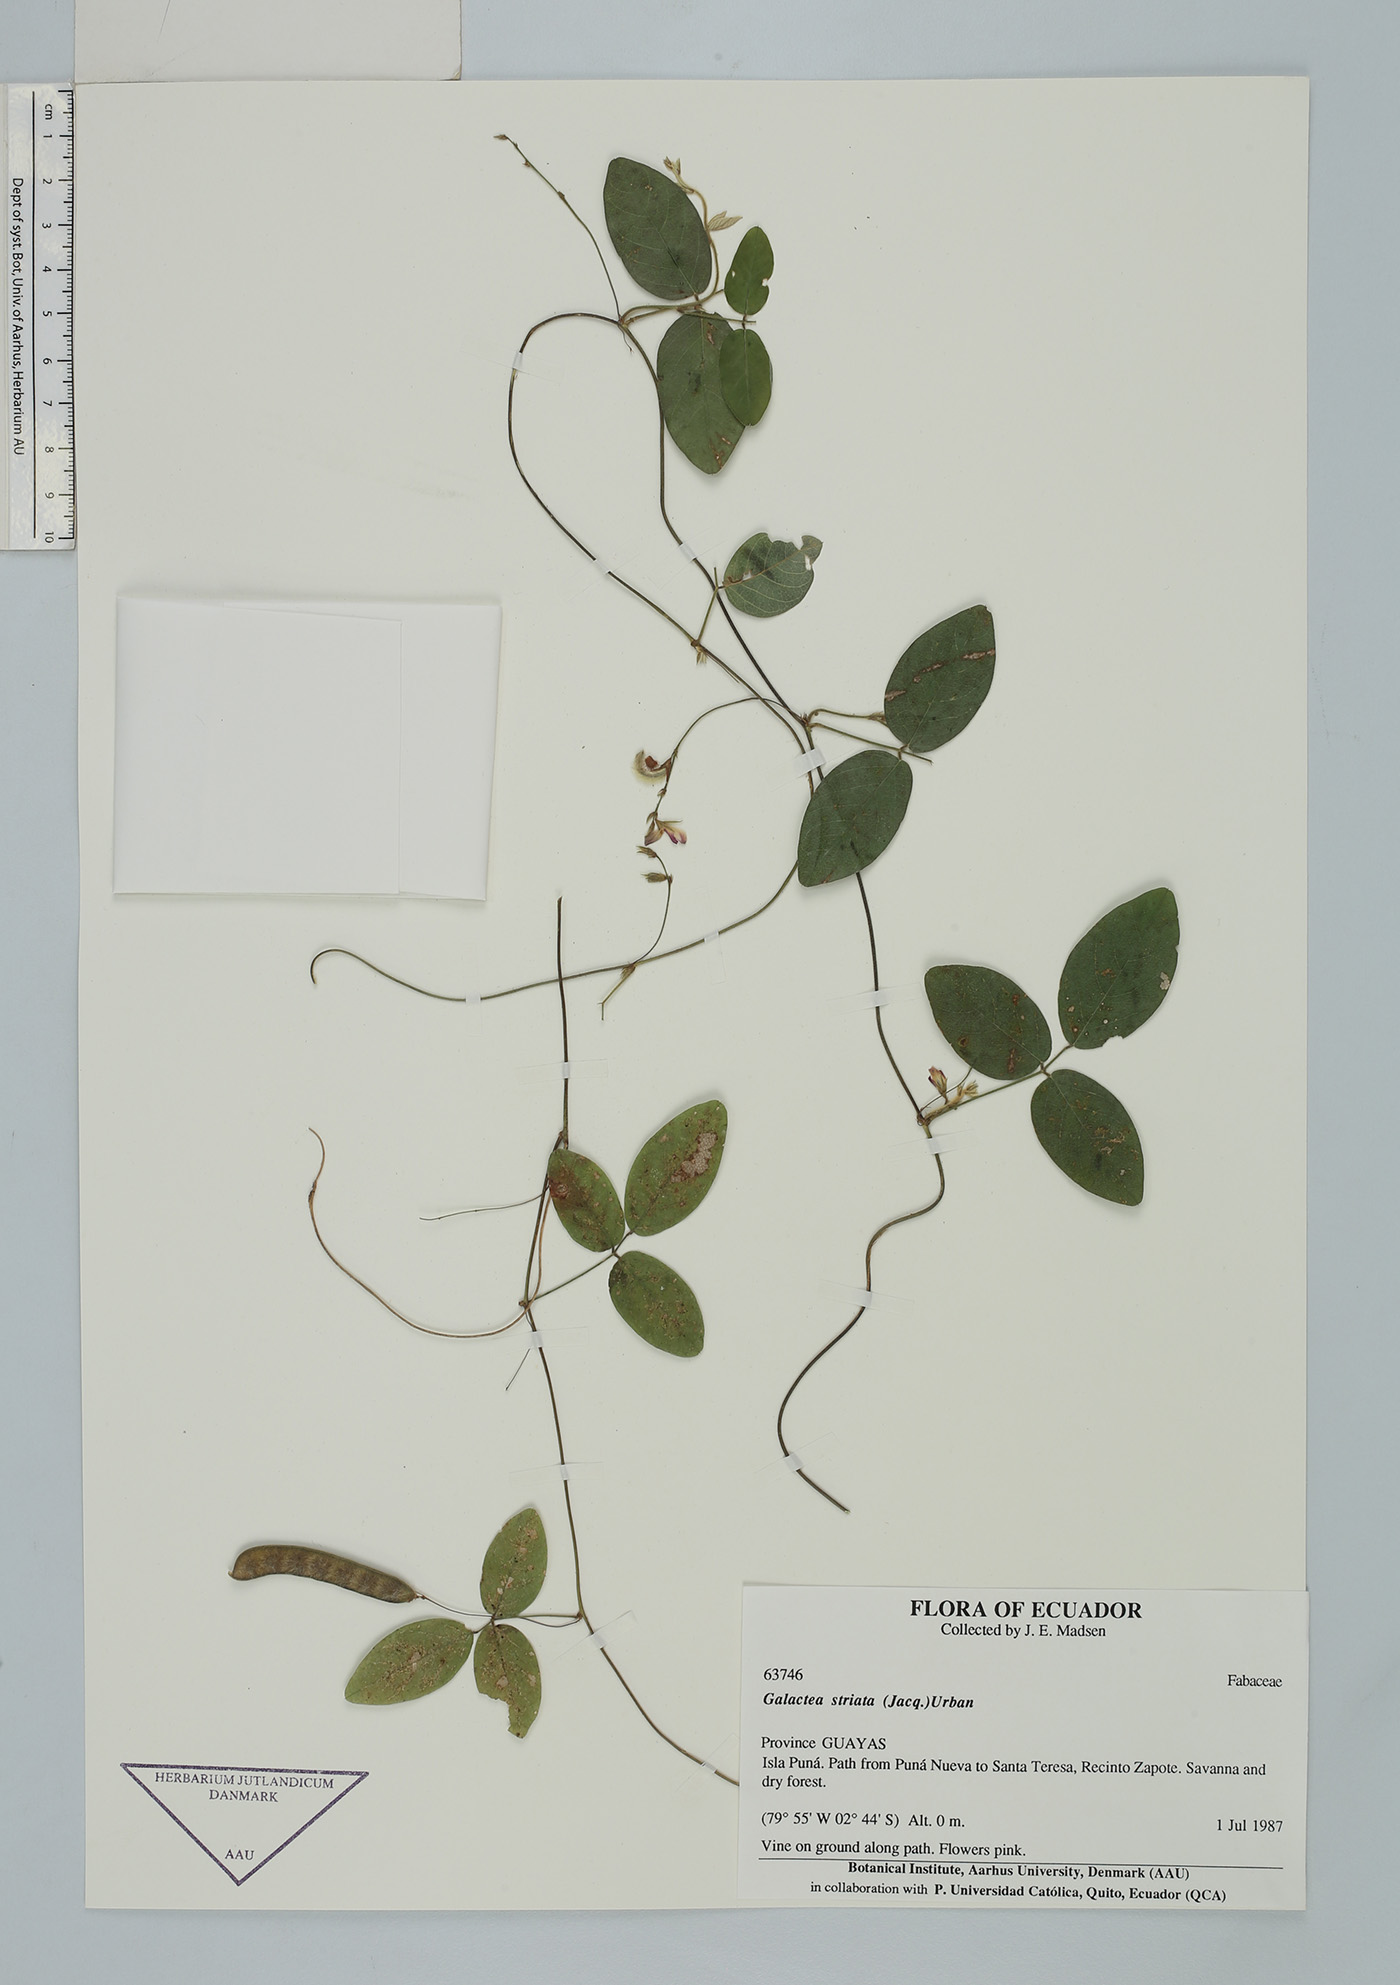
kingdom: Plantae
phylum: Tracheophyta
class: Magnoliopsida
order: Fabales
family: Fabaceae
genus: Galactia
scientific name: Galactia striata
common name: Florida hammock milkpea
